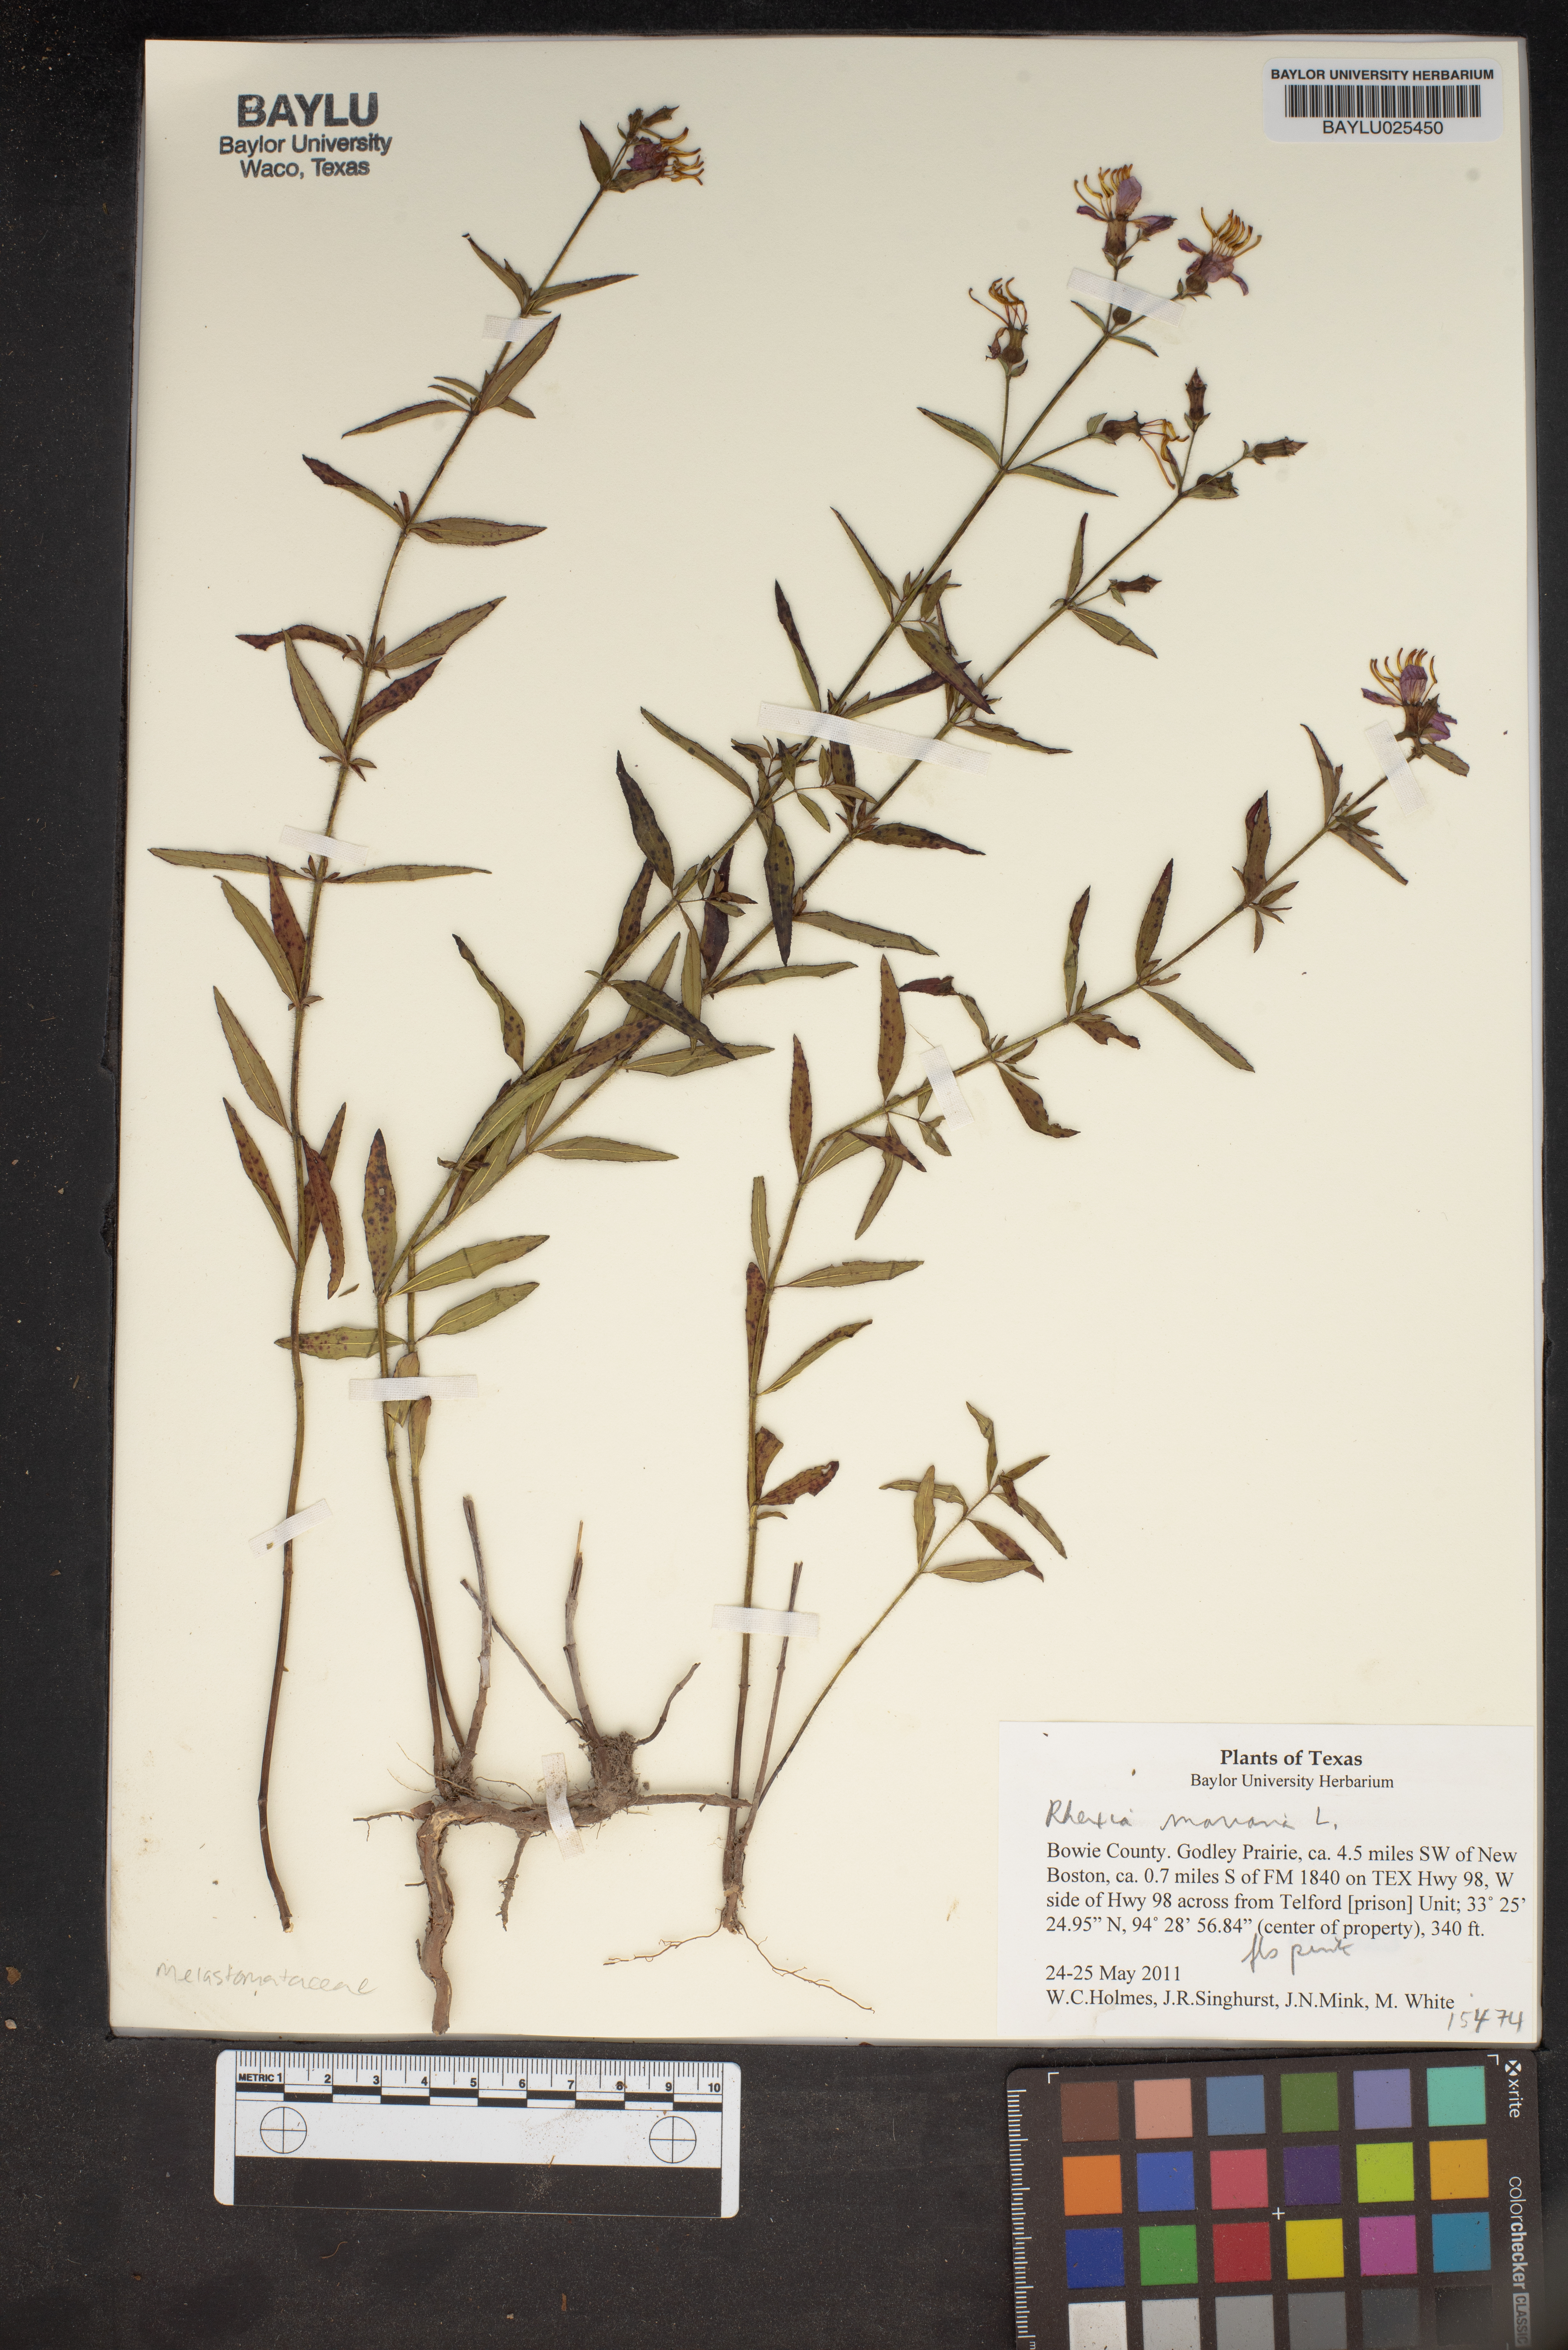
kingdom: Plantae
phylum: Tracheophyta
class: Magnoliopsida
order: Myrtales
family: Melastomataceae
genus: Rhexia
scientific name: Rhexia mariana
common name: Dull meadow-pitcher
